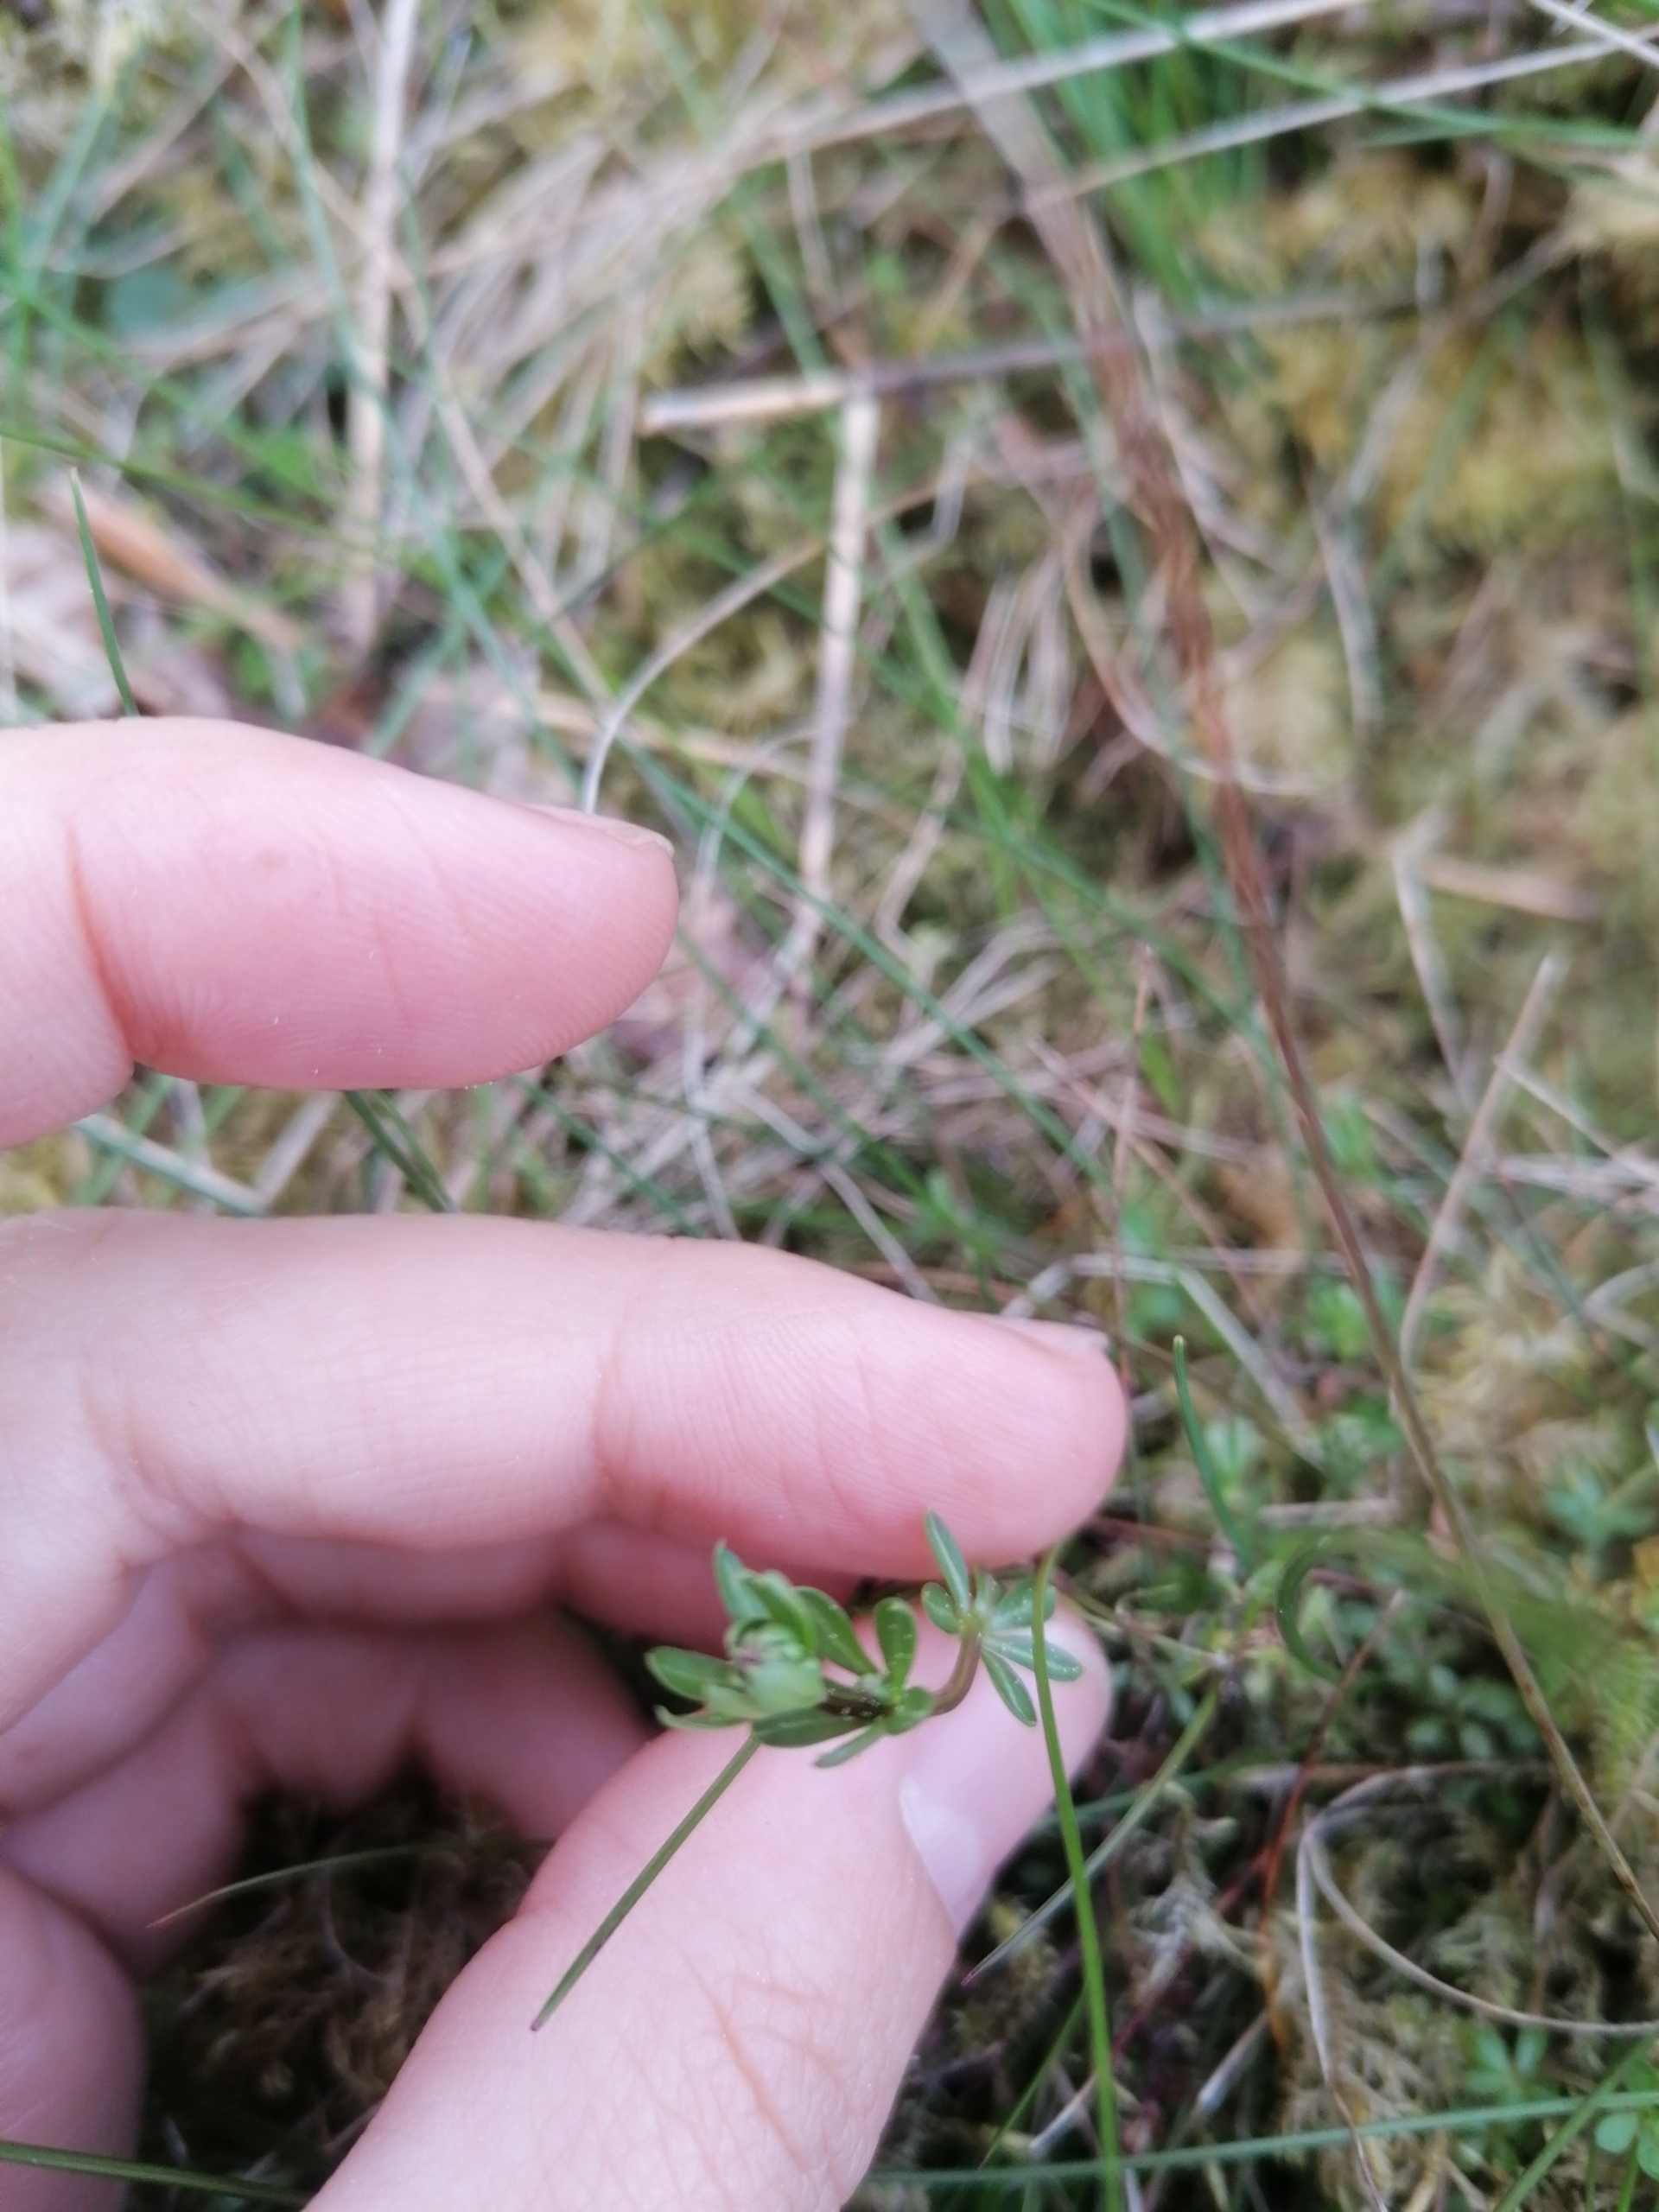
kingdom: Plantae
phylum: Tracheophyta
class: Magnoliopsida
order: Gentianales
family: Rubiaceae
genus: Galium
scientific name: Galium saxatile
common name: Lyng-snerre
